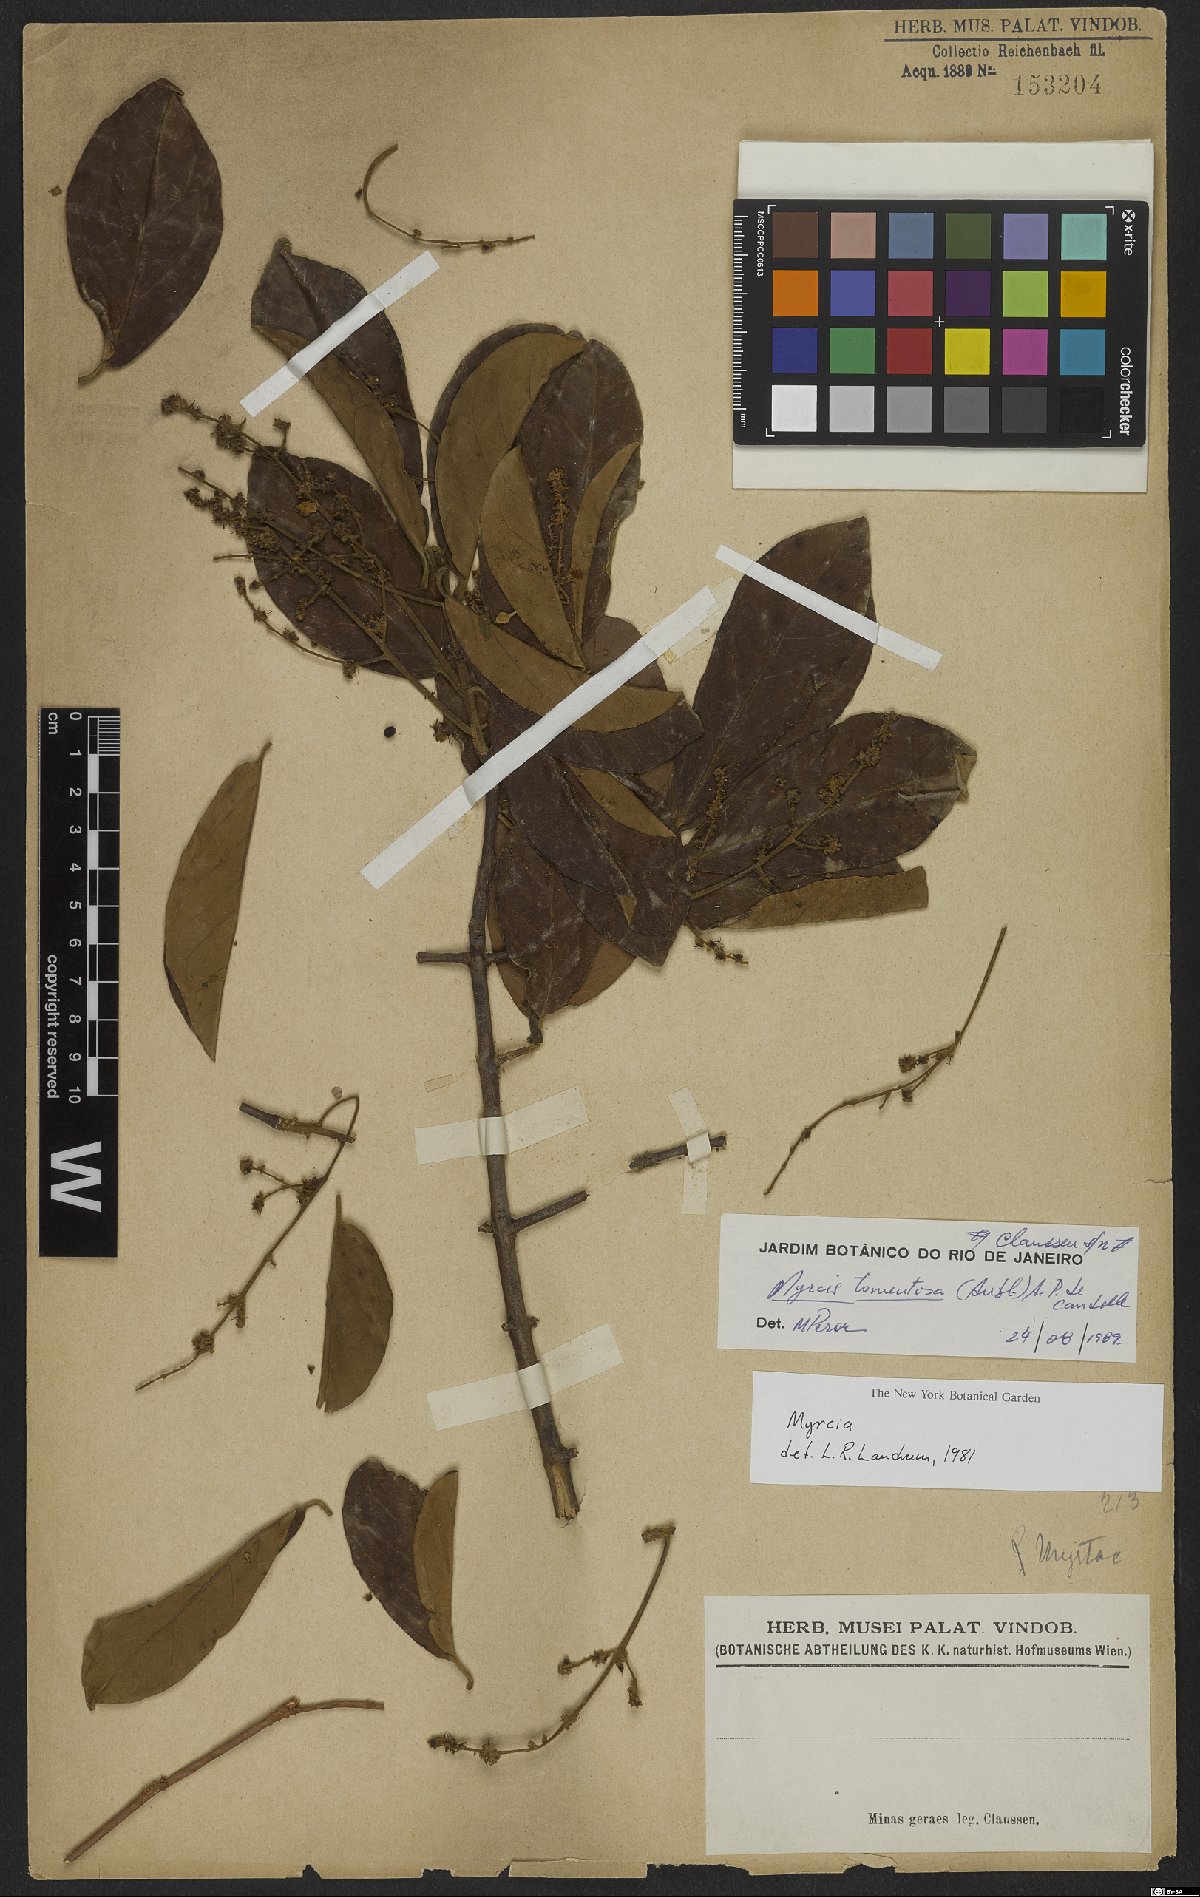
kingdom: Plantae
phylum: Tracheophyta
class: Magnoliopsida
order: Myrtales
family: Myrtaceae
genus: Myrcia
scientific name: Myrcia tomentosa
